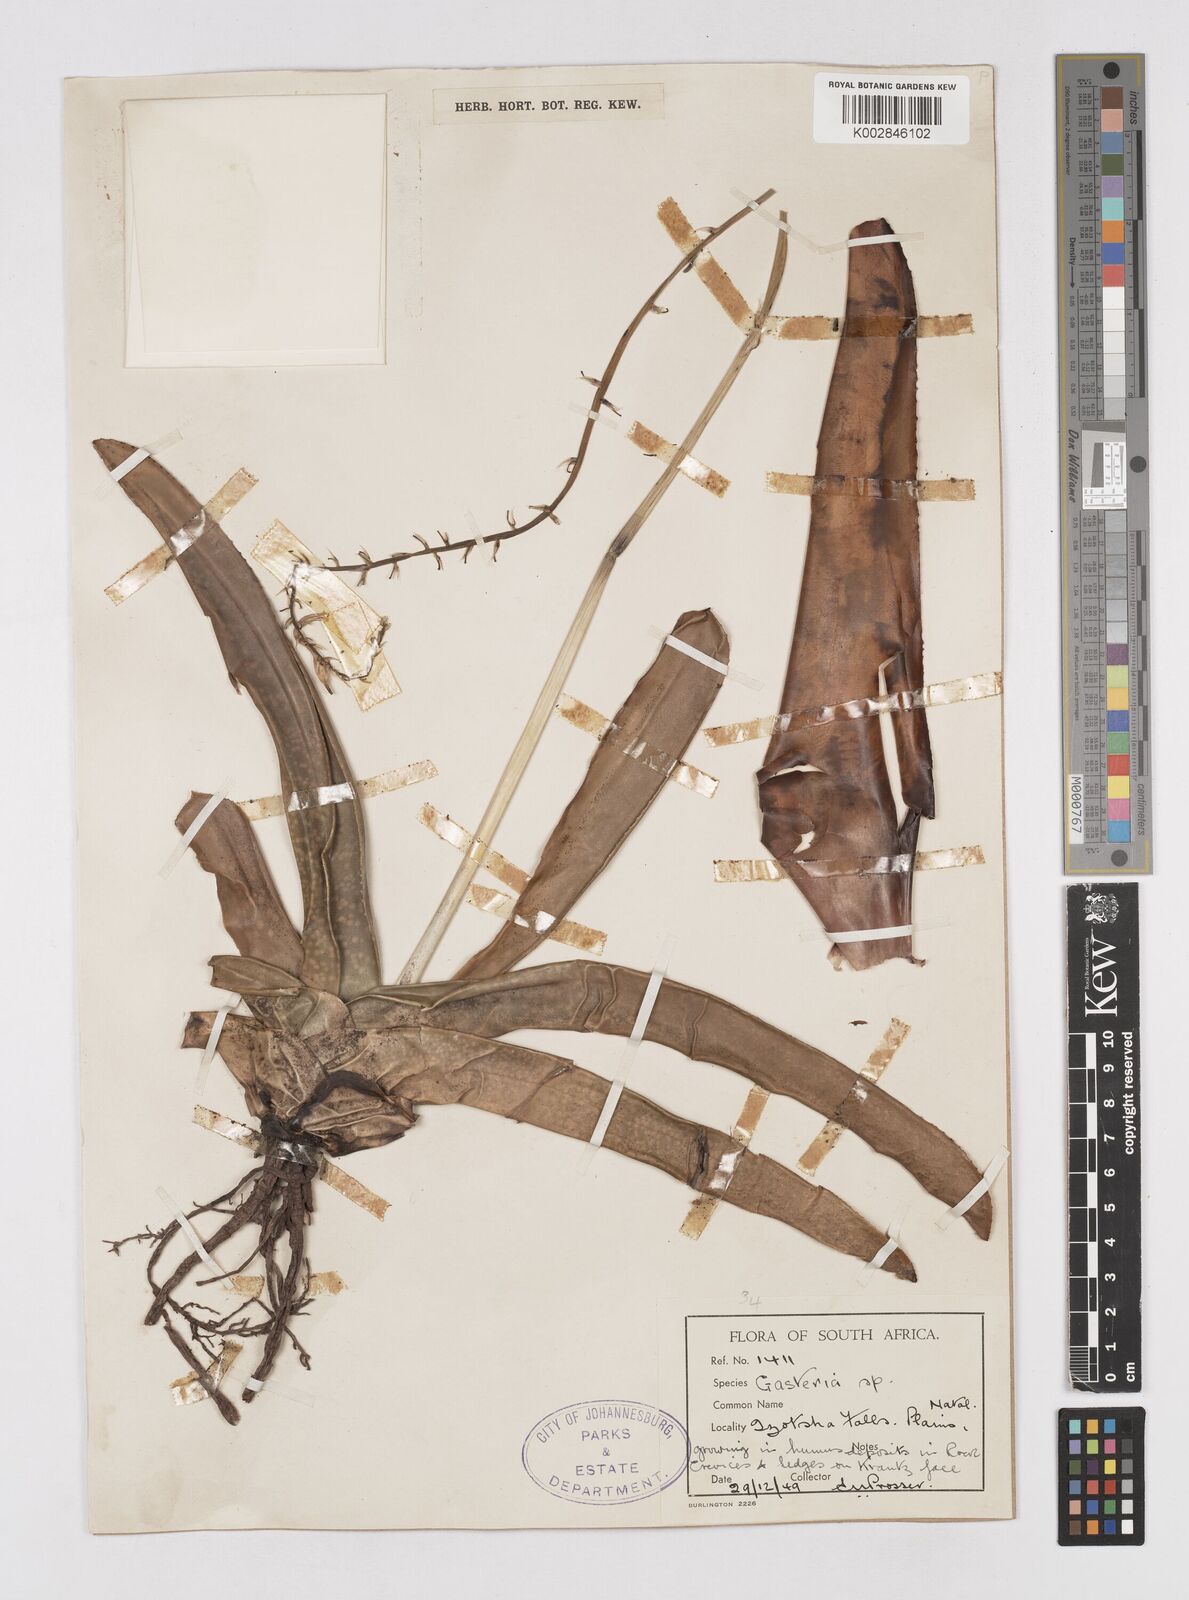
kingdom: Plantae
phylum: Tracheophyta
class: Liliopsida
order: Asparagales
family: Asphodelaceae
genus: Gasteria
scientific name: Gasteria
